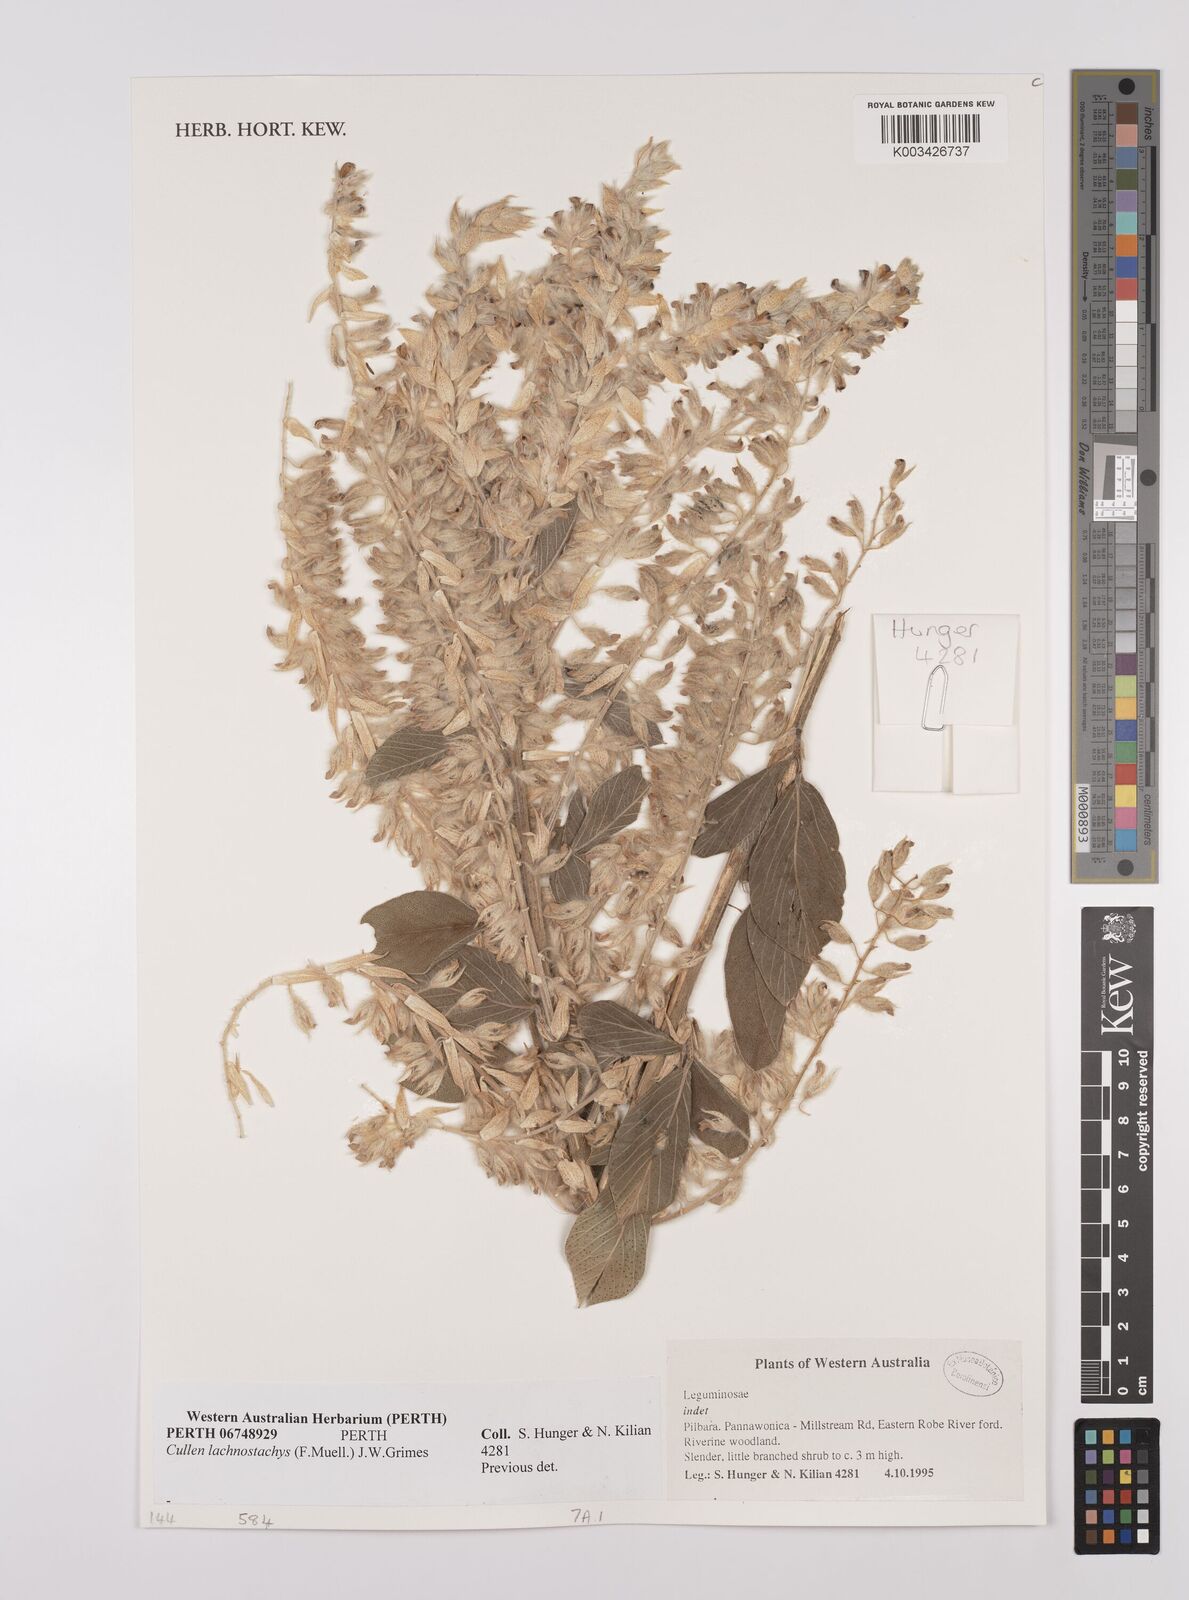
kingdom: Plantae
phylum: Tracheophyta
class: Magnoliopsida
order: Fabales
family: Fabaceae
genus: Cullen
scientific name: Cullen lachnostachys
